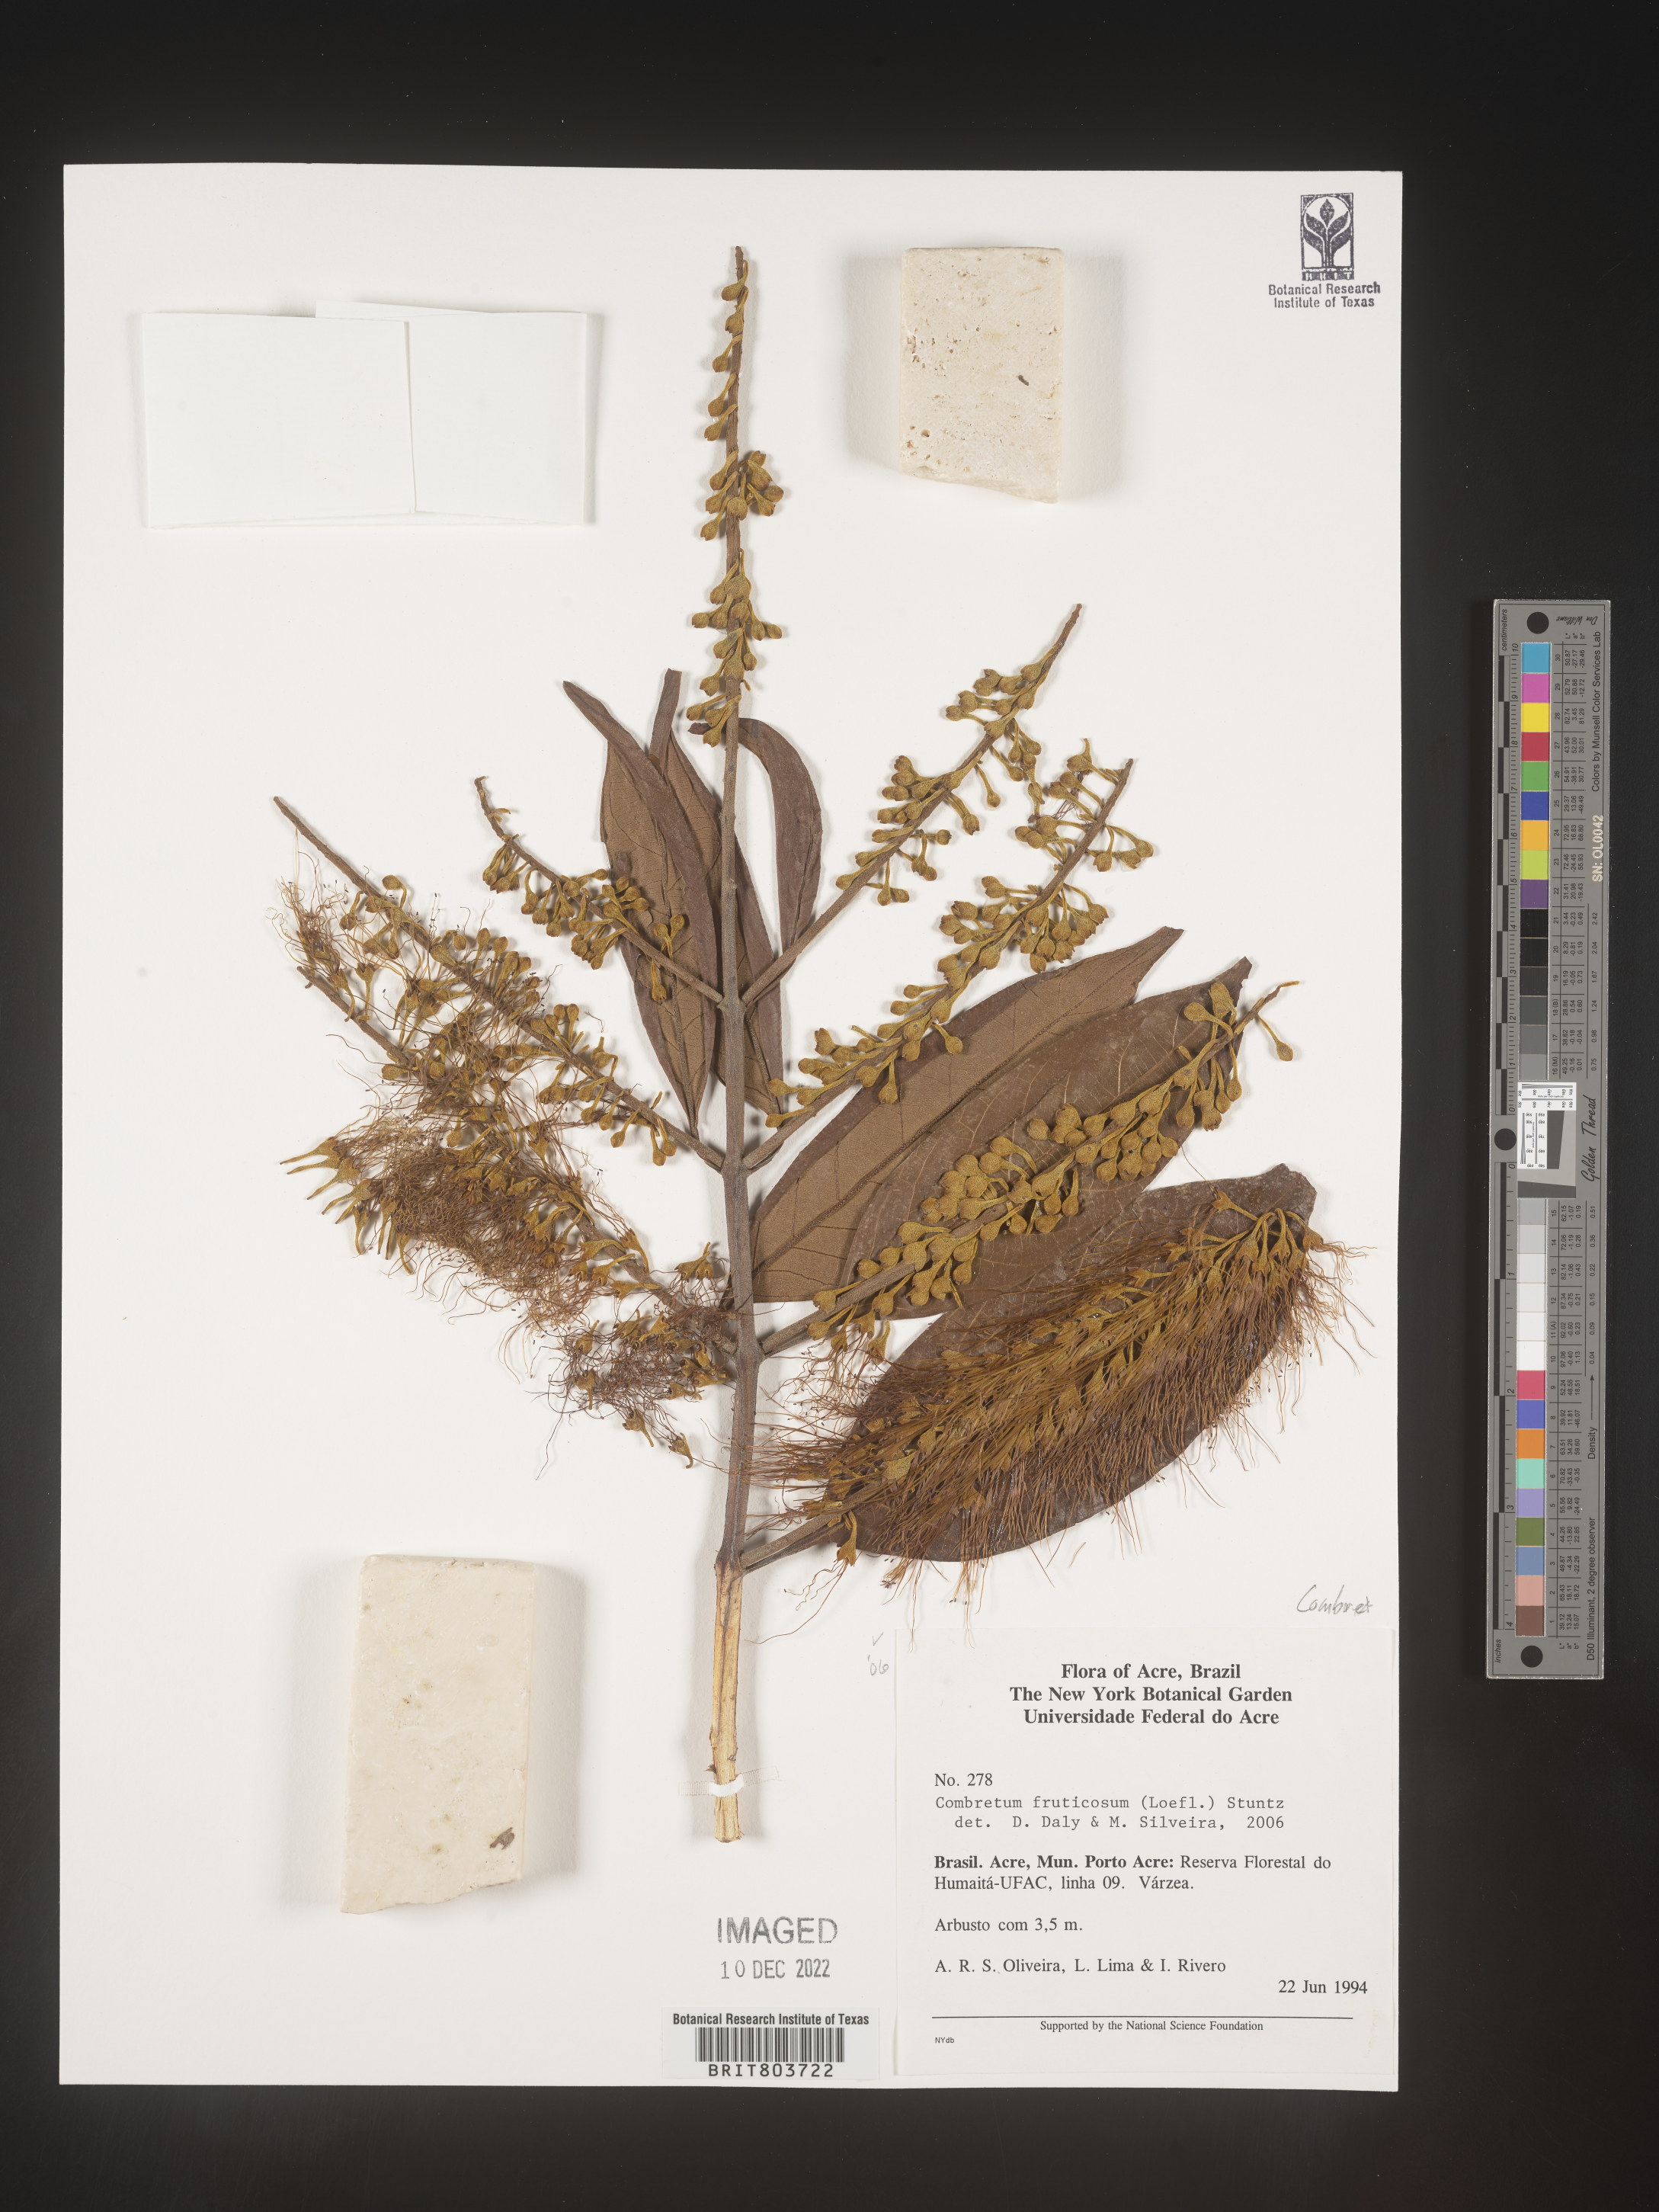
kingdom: Plantae
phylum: Tracheophyta
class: Magnoliopsida
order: Myrtales
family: Combretaceae
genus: Combretum
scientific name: Combretum
